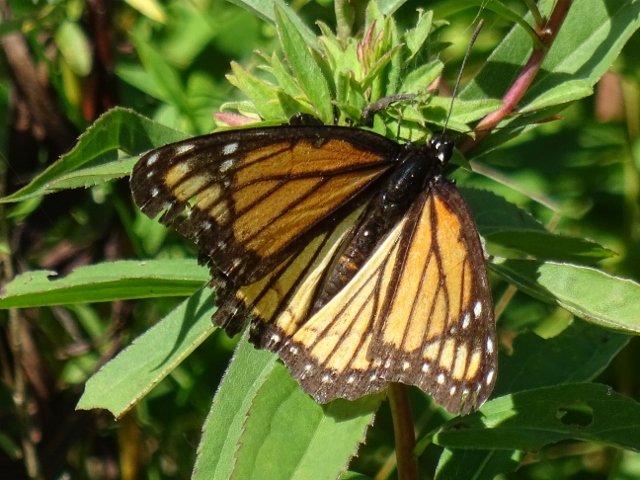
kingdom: Animalia
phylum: Arthropoda
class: Insecta
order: Lepidoptera
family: Nymphalidae
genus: Limenitis
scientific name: Limenitis archippus
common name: Viceroy
